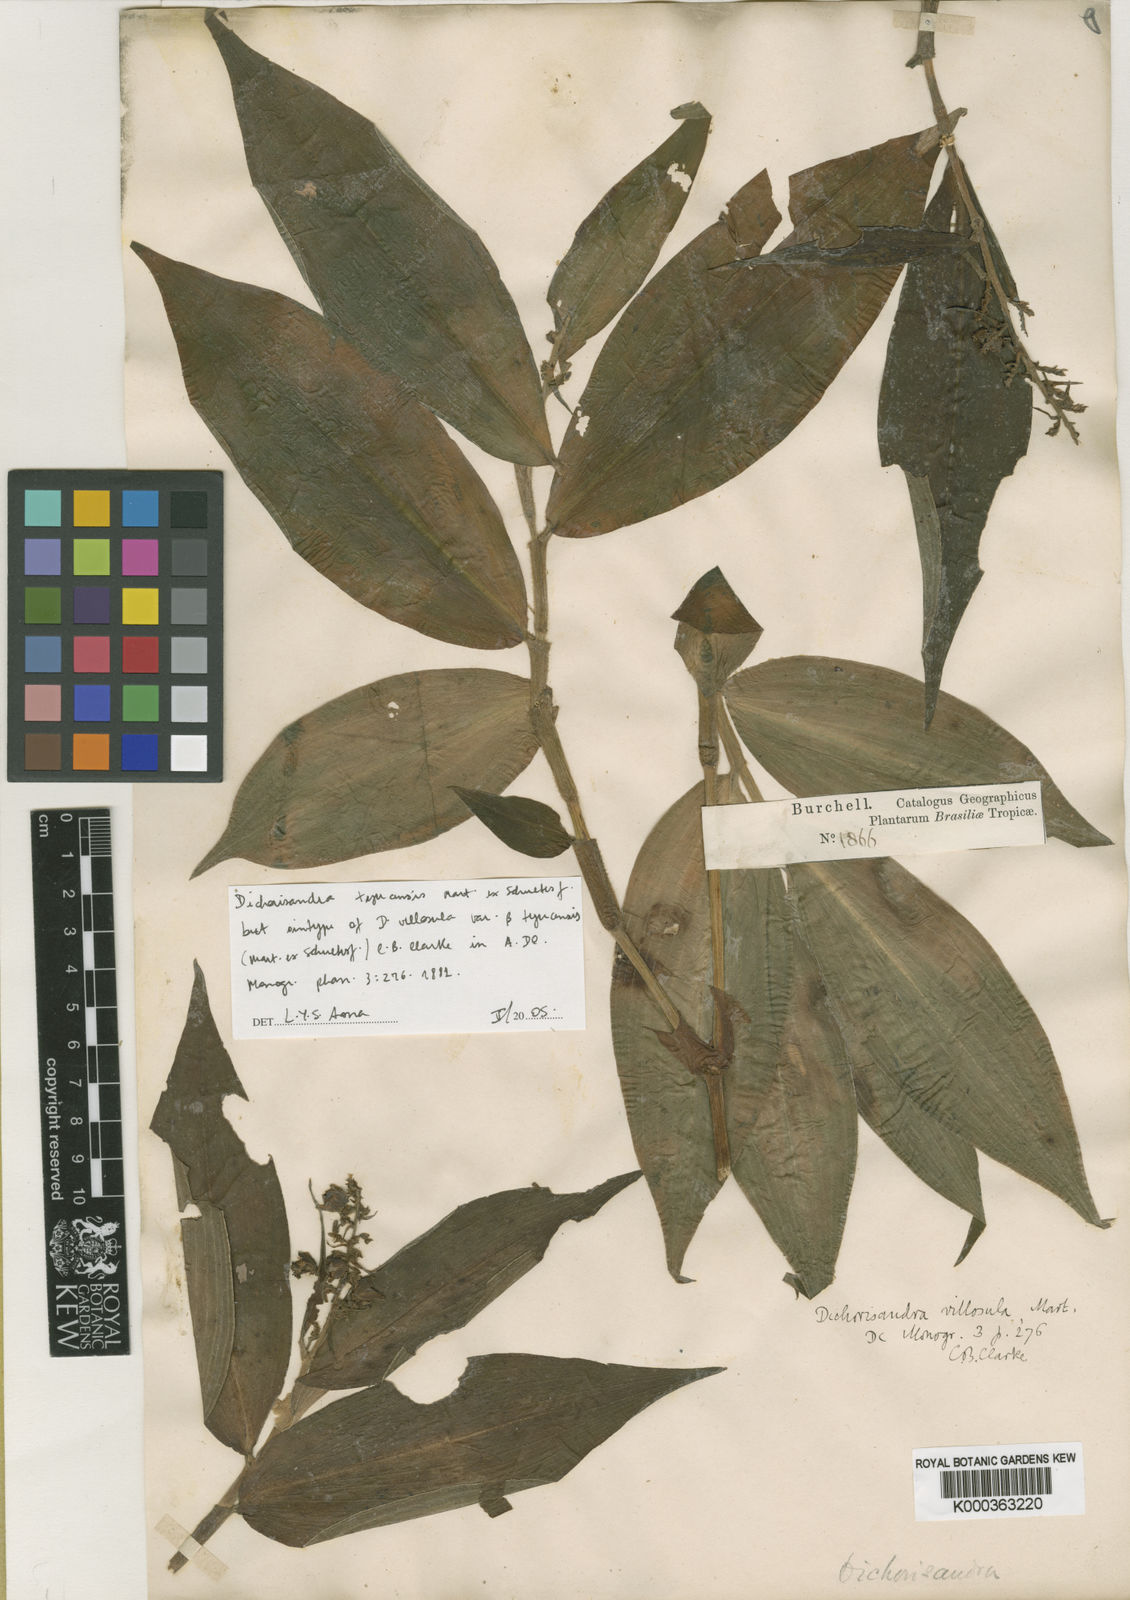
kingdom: Plantae
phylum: Tracheophyta
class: Liliopsida
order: Commelinales
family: Commelinaceae
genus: Dichorisandra
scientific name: Dichorisandra tejucensis
